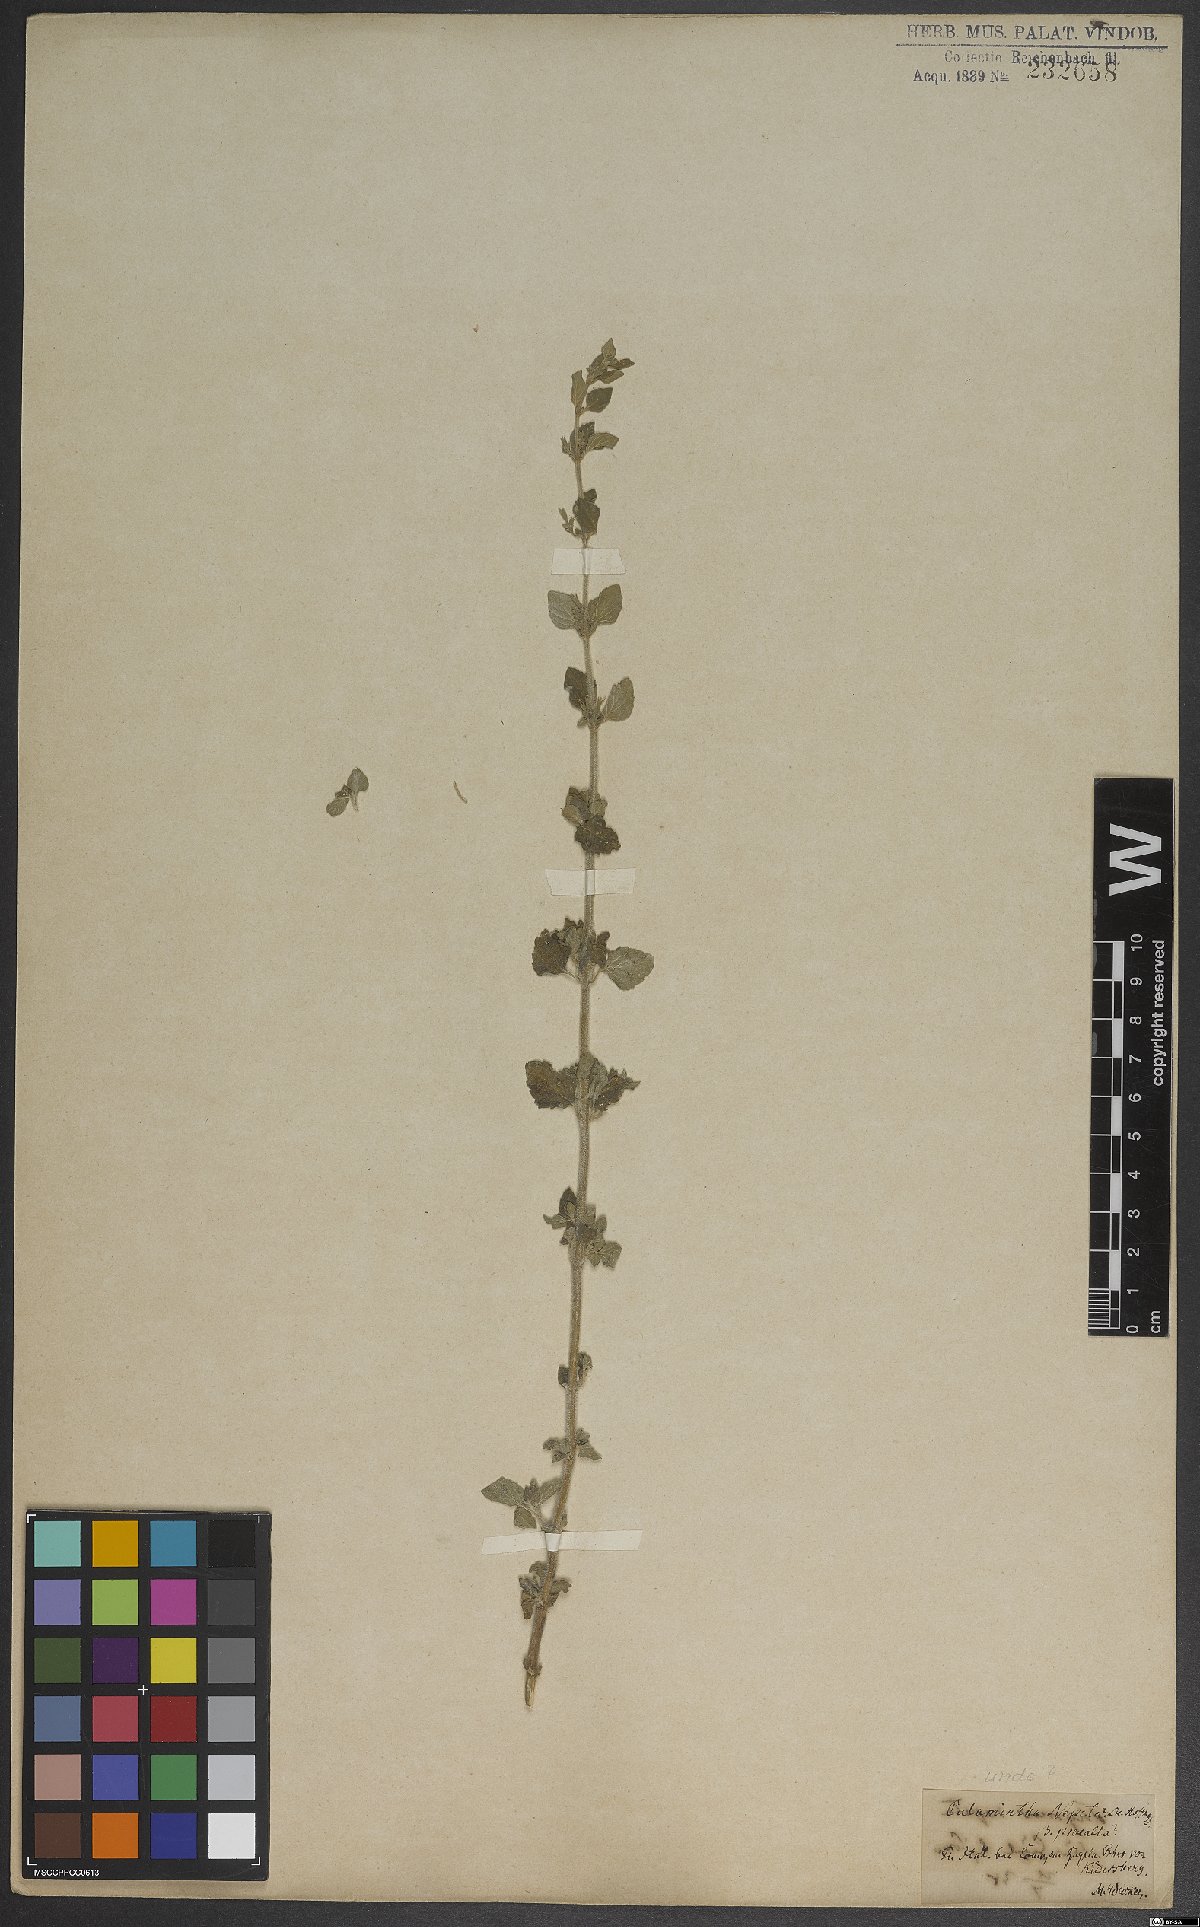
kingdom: Plantae
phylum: Tracheophyta
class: Magnoliopsida
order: Lamiales
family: Lamiaceae
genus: Clinopodium
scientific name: Clinopodium nepeta
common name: Lesser calamint
